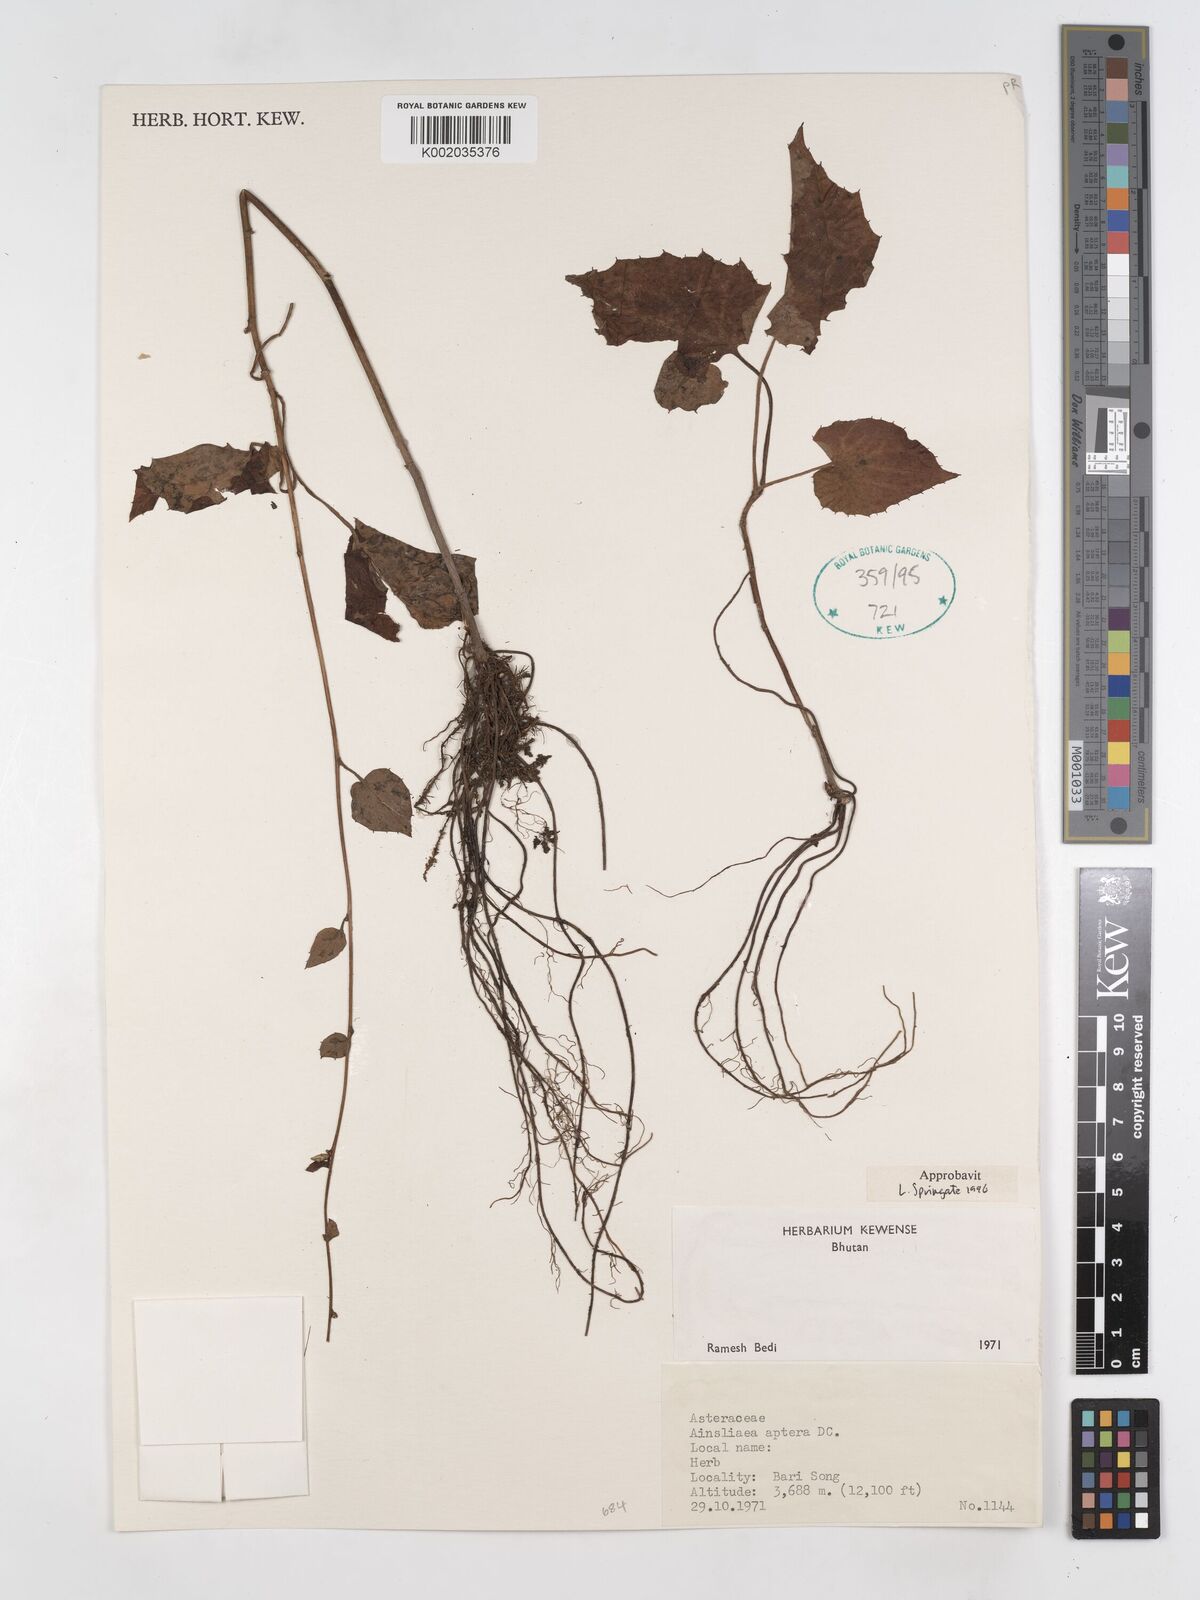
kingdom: Plantae
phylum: Tracheophyta
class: Magnoliopsida
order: Asterales
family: Asteraceae
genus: Ainsliaea
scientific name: Ainsliaea aptera
